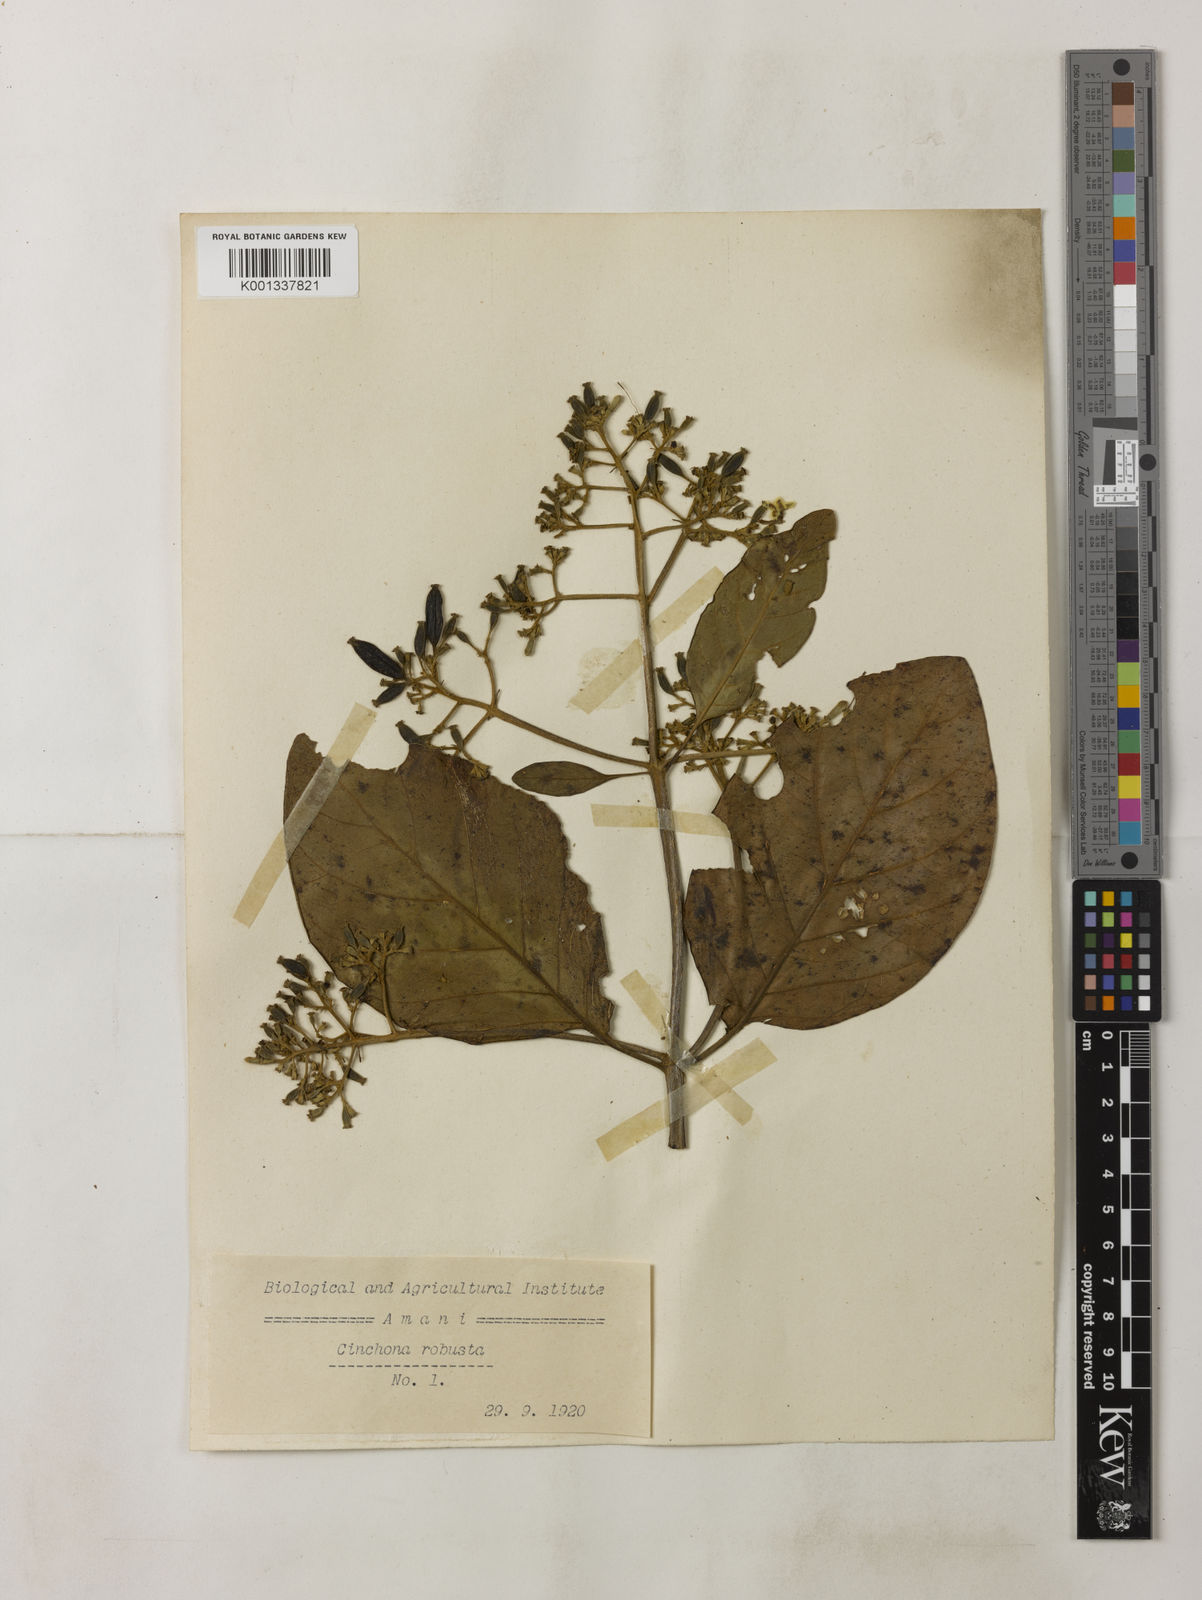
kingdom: Plantae
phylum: Tracheophyta
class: Magnoliopsida
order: Gentianales
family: Rubiaceae
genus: Cinchona
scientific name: Cinchona officinalis
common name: Lojabark
